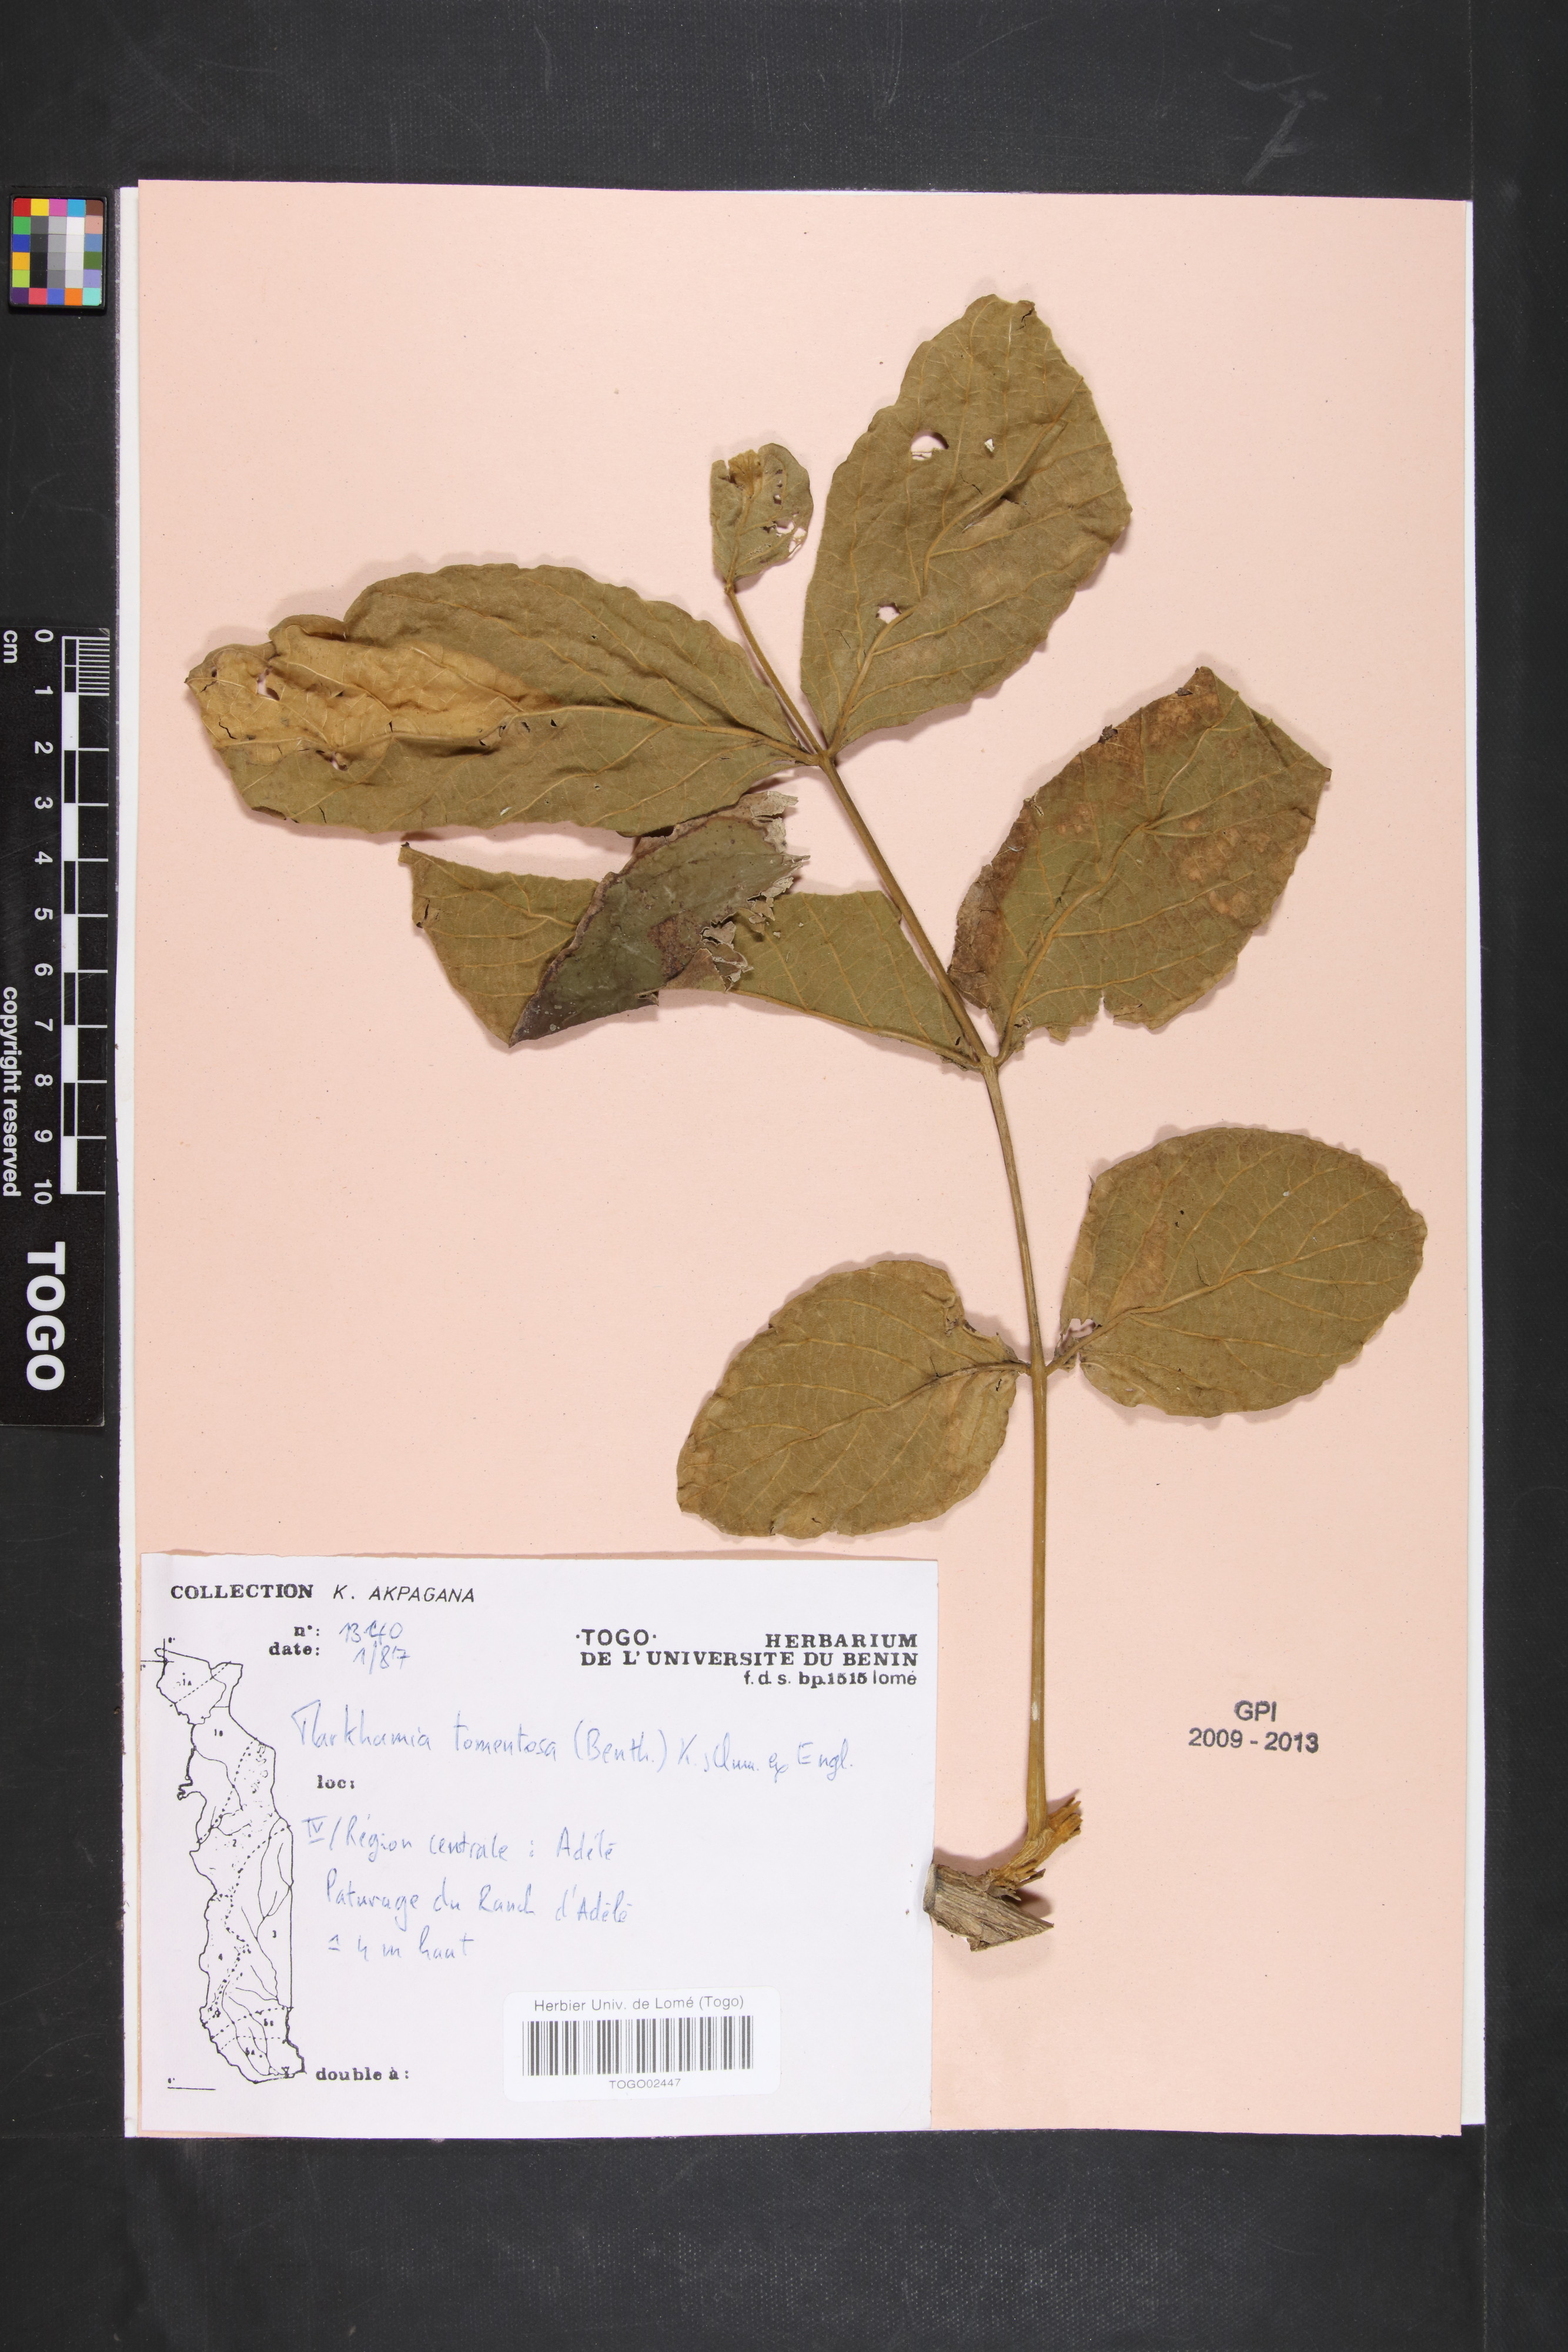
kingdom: Plantae
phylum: Tracheophyta
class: Magnoliopsida
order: Lamiales
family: Bignoniaceae
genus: Markhamia
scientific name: Markhamia tomentosa
